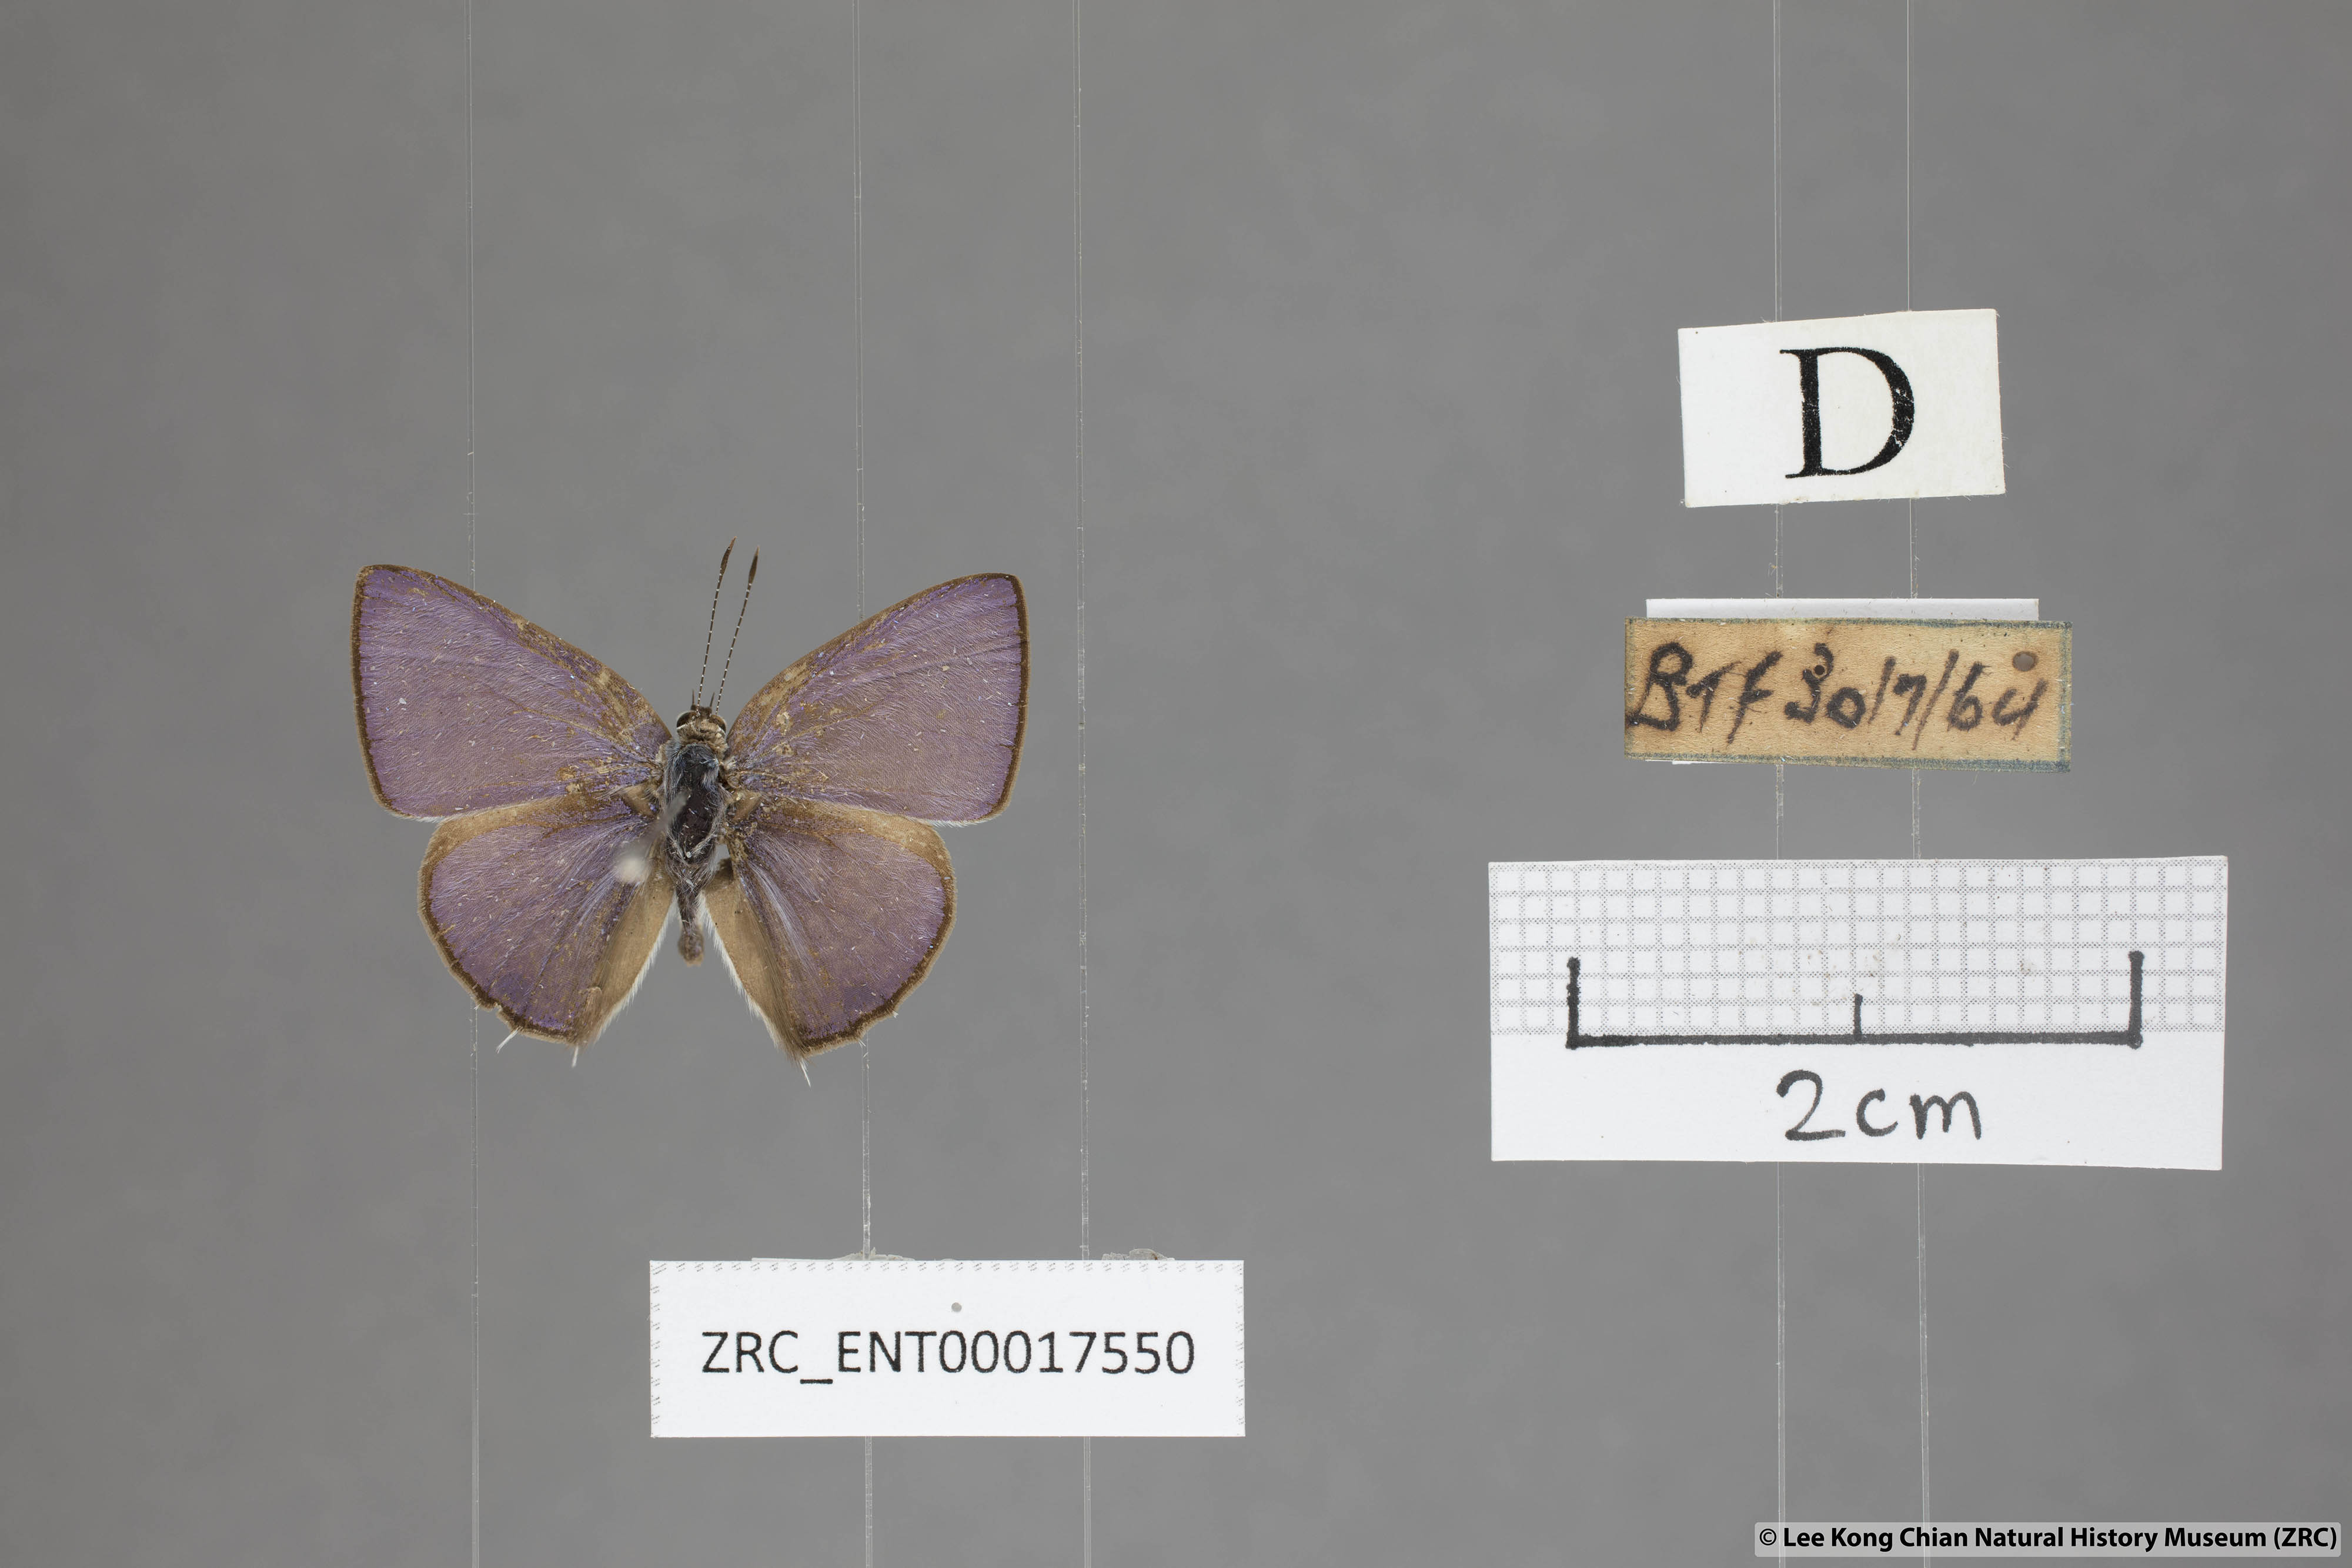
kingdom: Animalia
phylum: Arthropoda
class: Insecta
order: Lepidoptera
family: Lycaenidae
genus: Anthene
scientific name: Anthene lycaenoides
